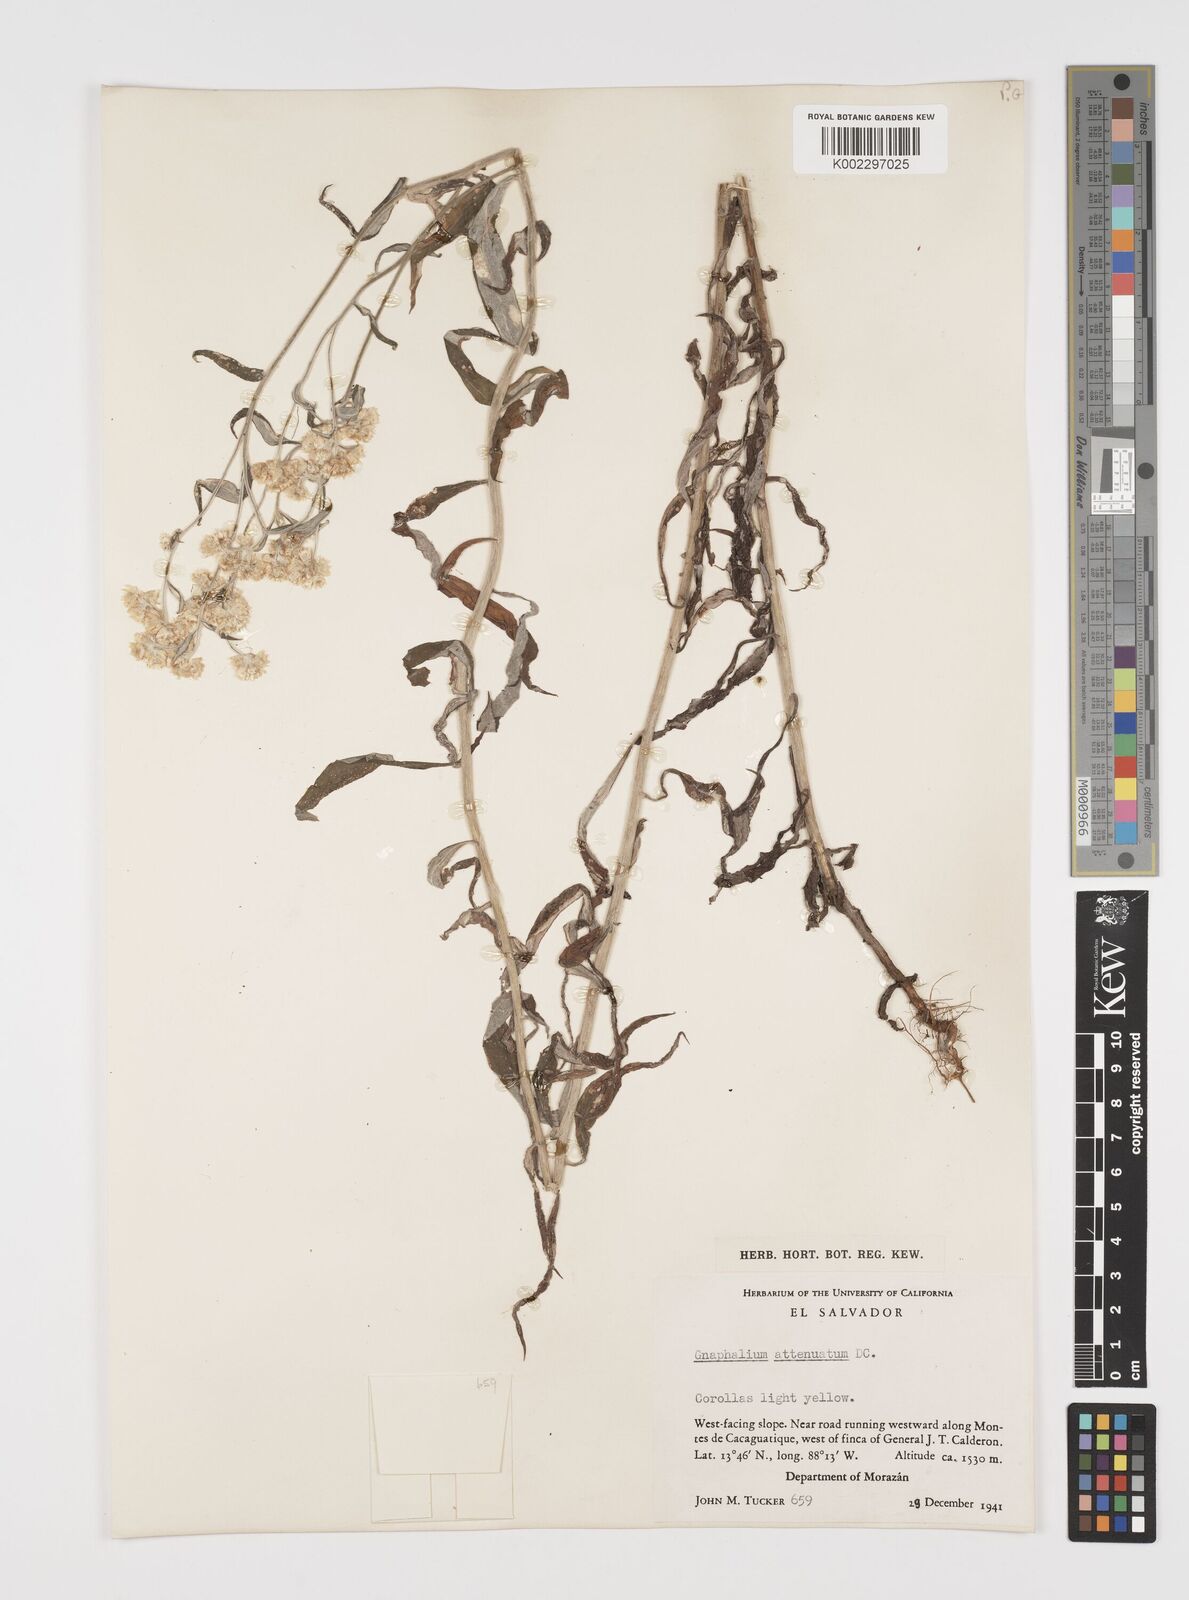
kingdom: Plantae
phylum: Tracheophyta
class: Magnoliopsida
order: Asterales
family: Asteraceae
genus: Pseudognaphalium
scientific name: Pseudognaphalium attenuatum
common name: Tapered cudweed
